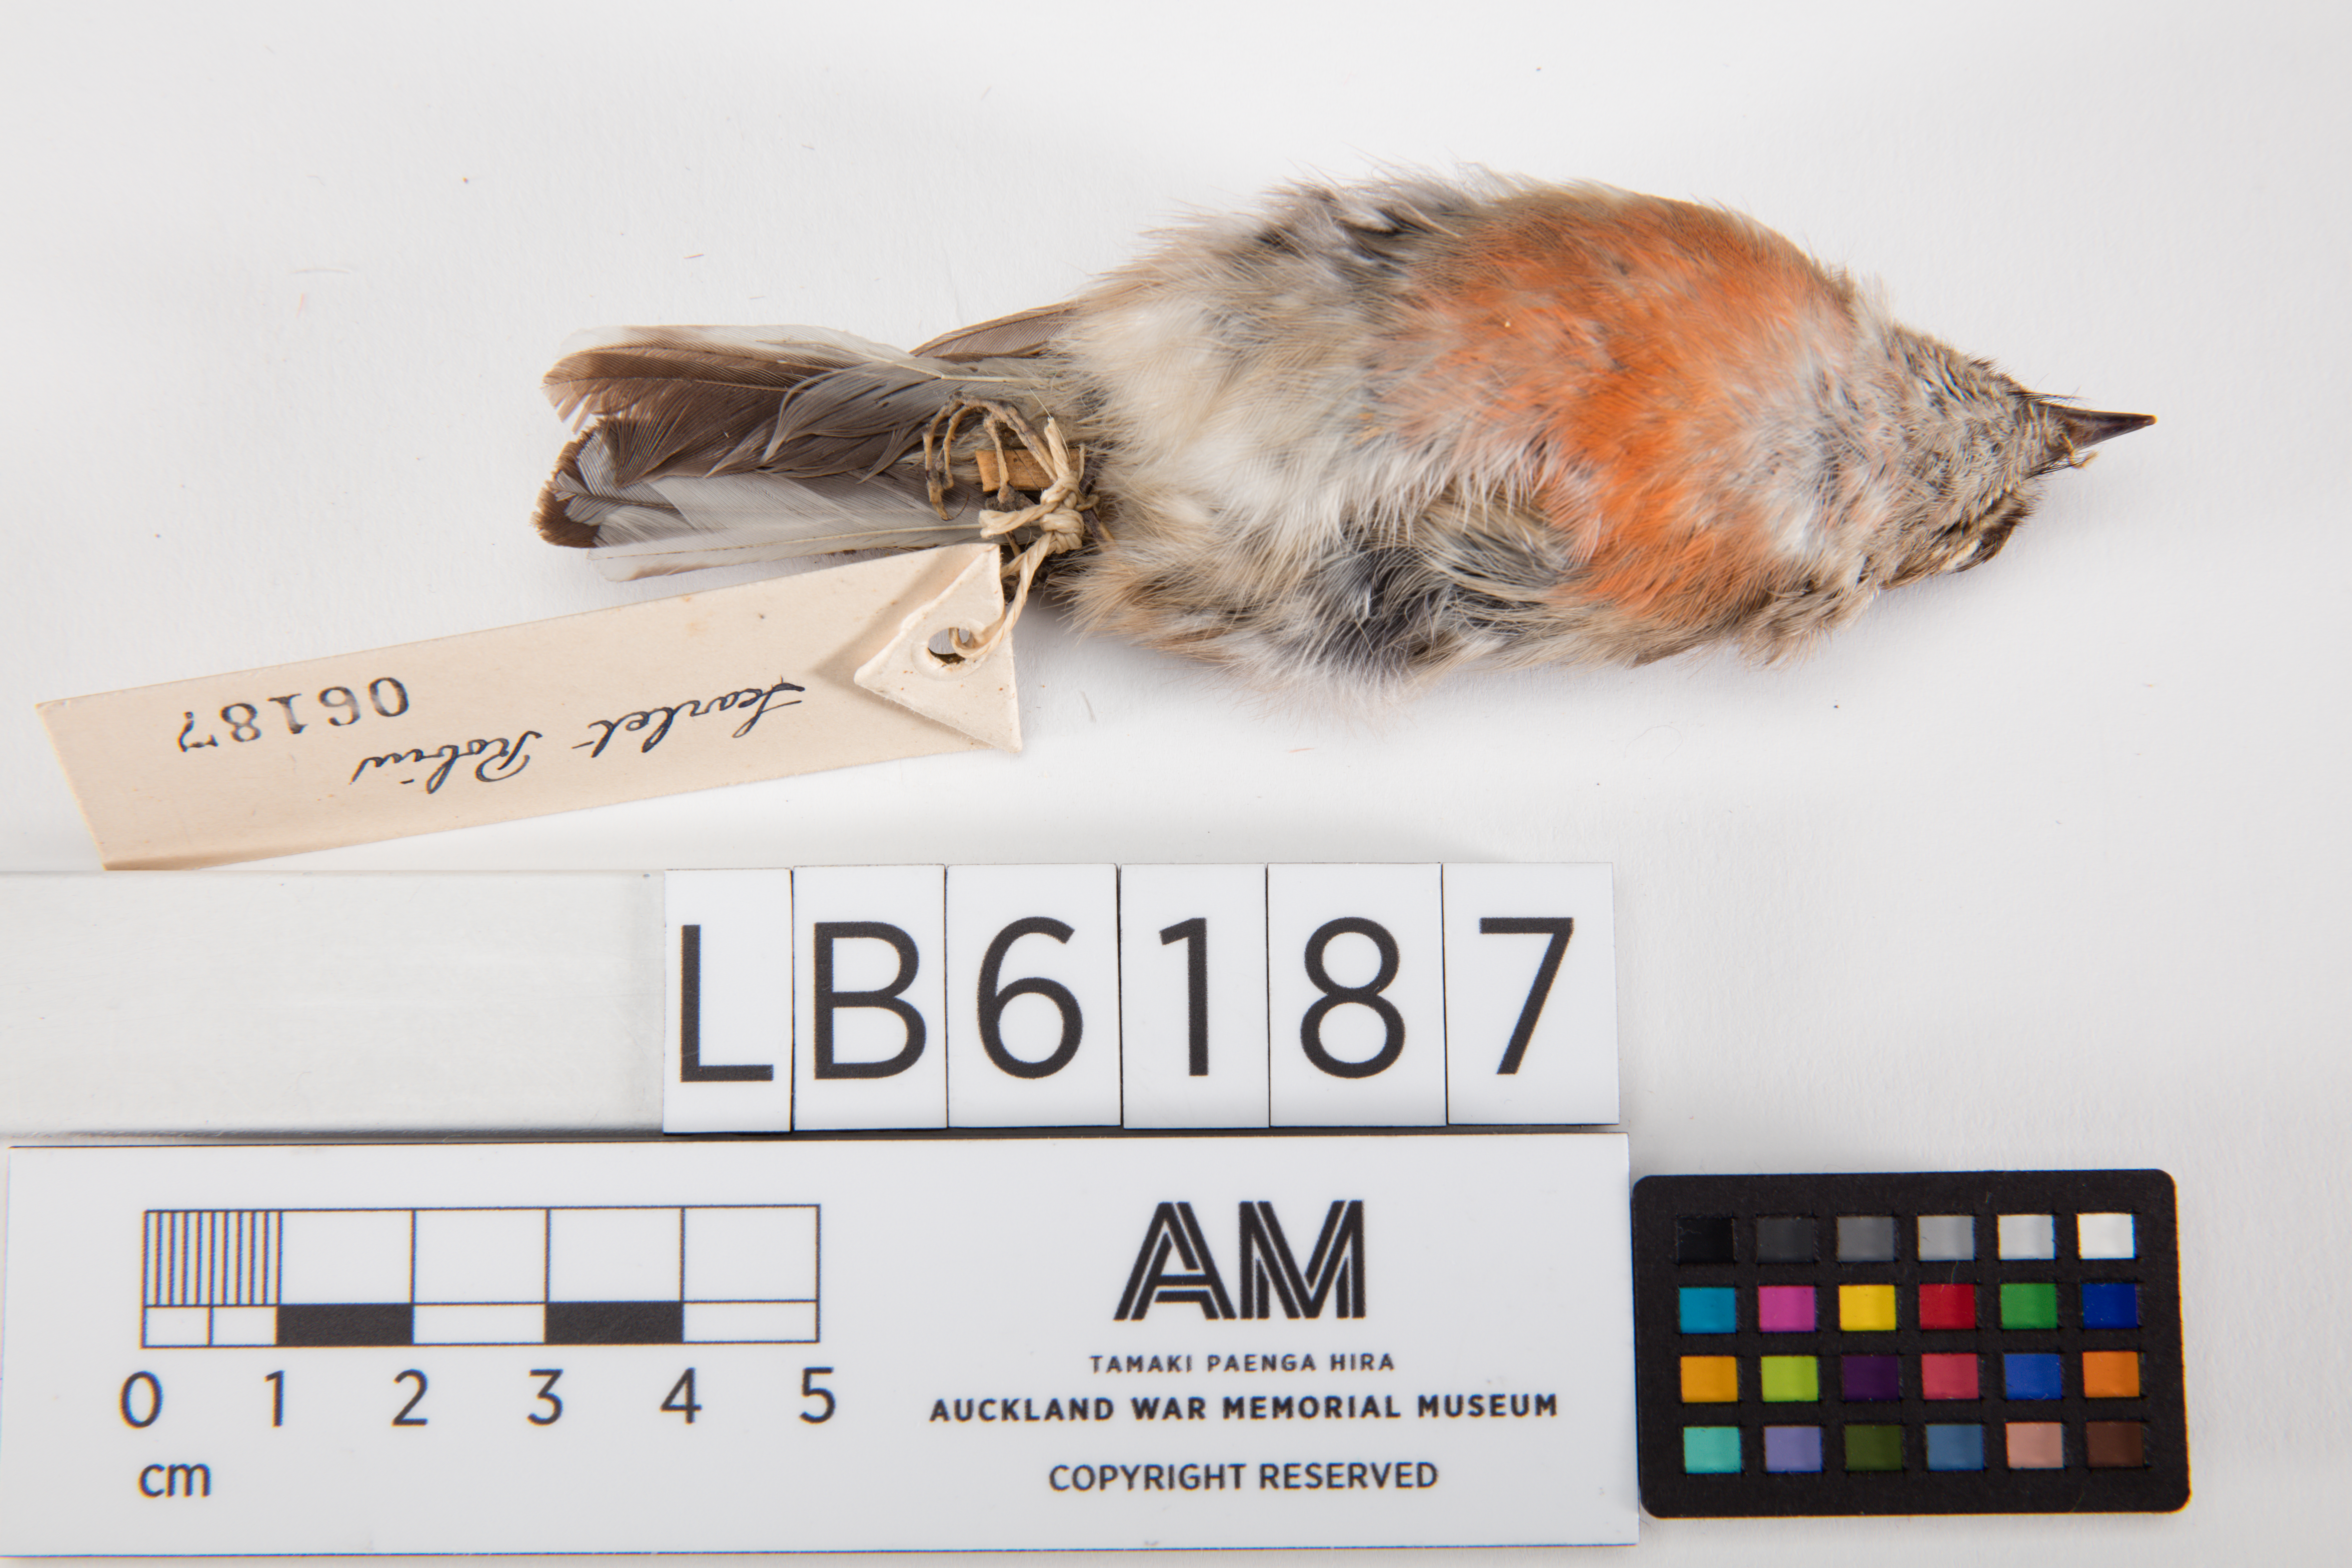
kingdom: Animalia
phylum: Chordata
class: Aves
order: Passeriformes
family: Petroicidae
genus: Petroica
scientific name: Petroica multicolor
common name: Pacific robin
